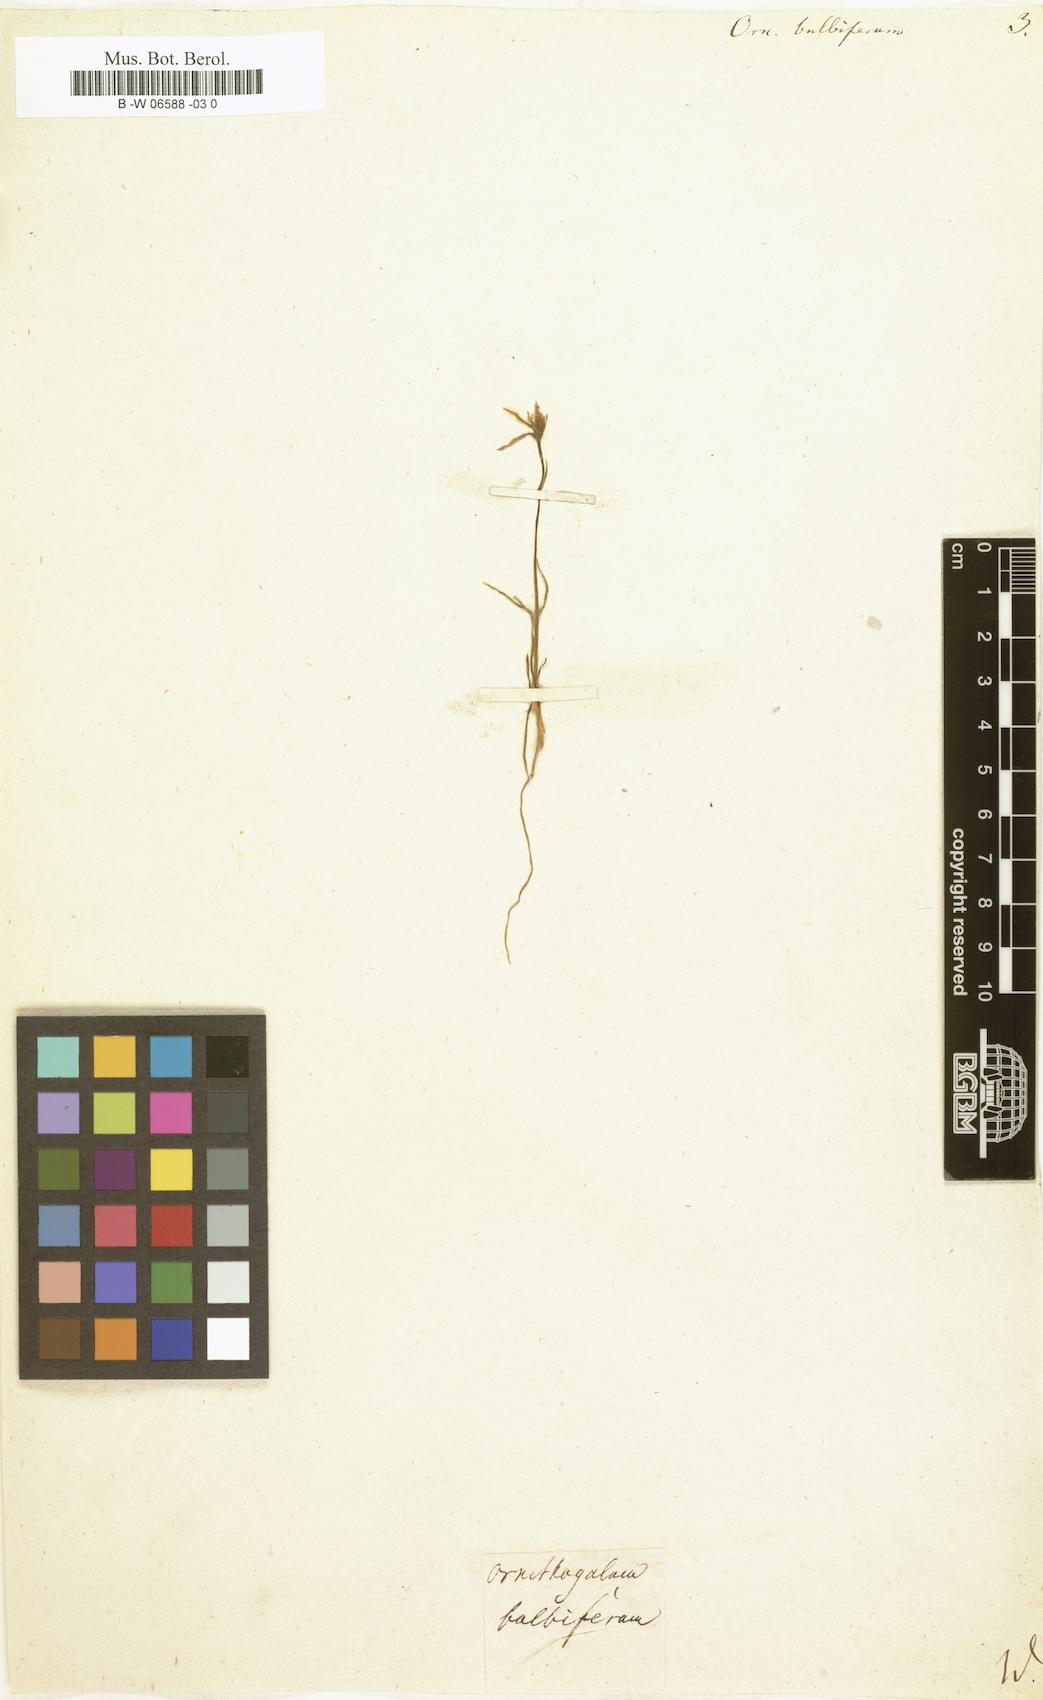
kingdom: Plantae
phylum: Tracheophyta
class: Liliopsida
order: Liliales
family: Liliaceae
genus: Gagea
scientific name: Gagea bulbifera
